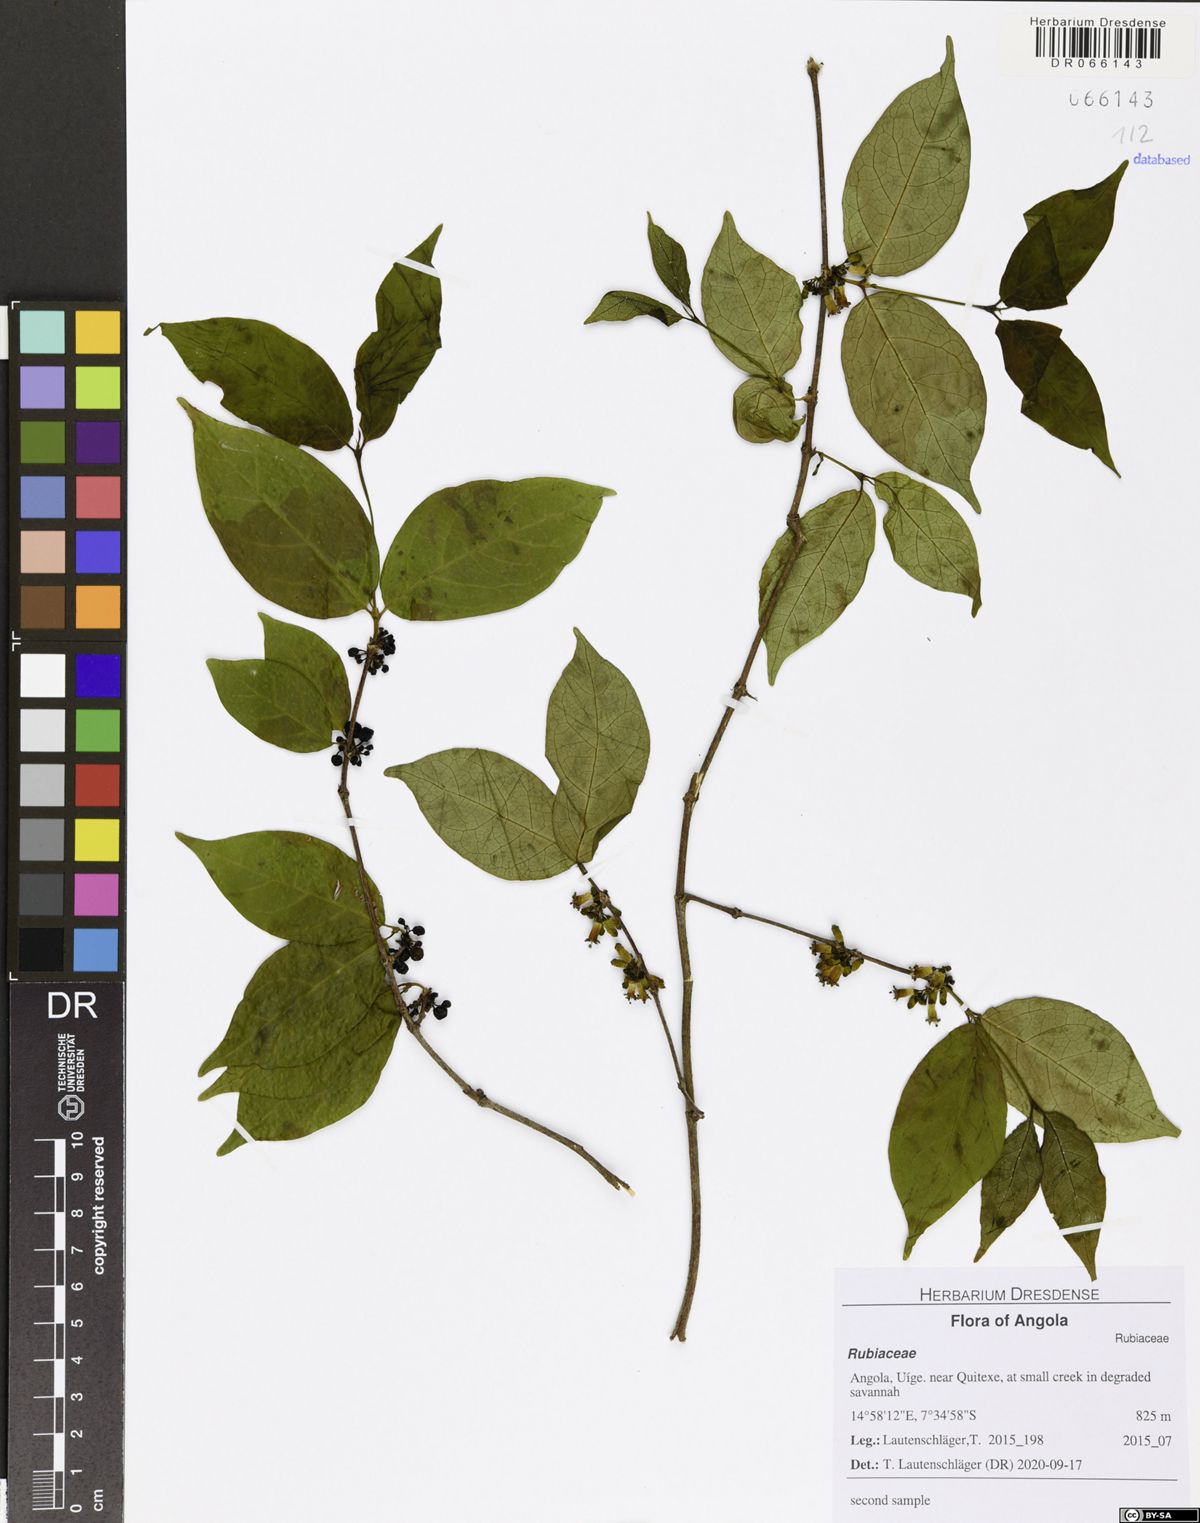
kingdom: Plantae
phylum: Tracheophyta
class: Magnoliopsida
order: Gentianales
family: Rubiaceae
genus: Rytigynia
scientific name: Rytigynia umbellulata
